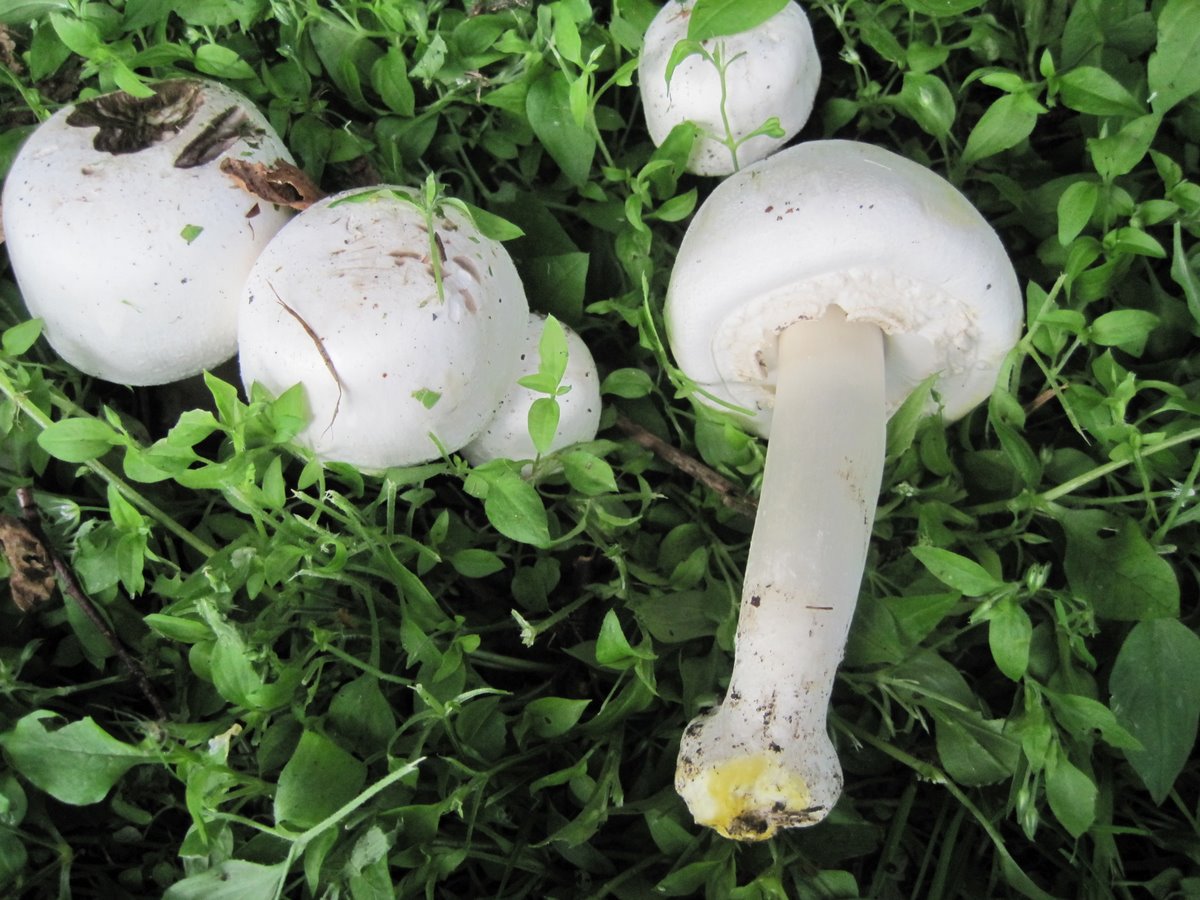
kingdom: Fungi
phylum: Basidiomycota
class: Agaricomycetes
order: Agaricales
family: Agaricaceae
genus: Agaricus
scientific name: Agaricus xanthodermus
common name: karbol-champignon
